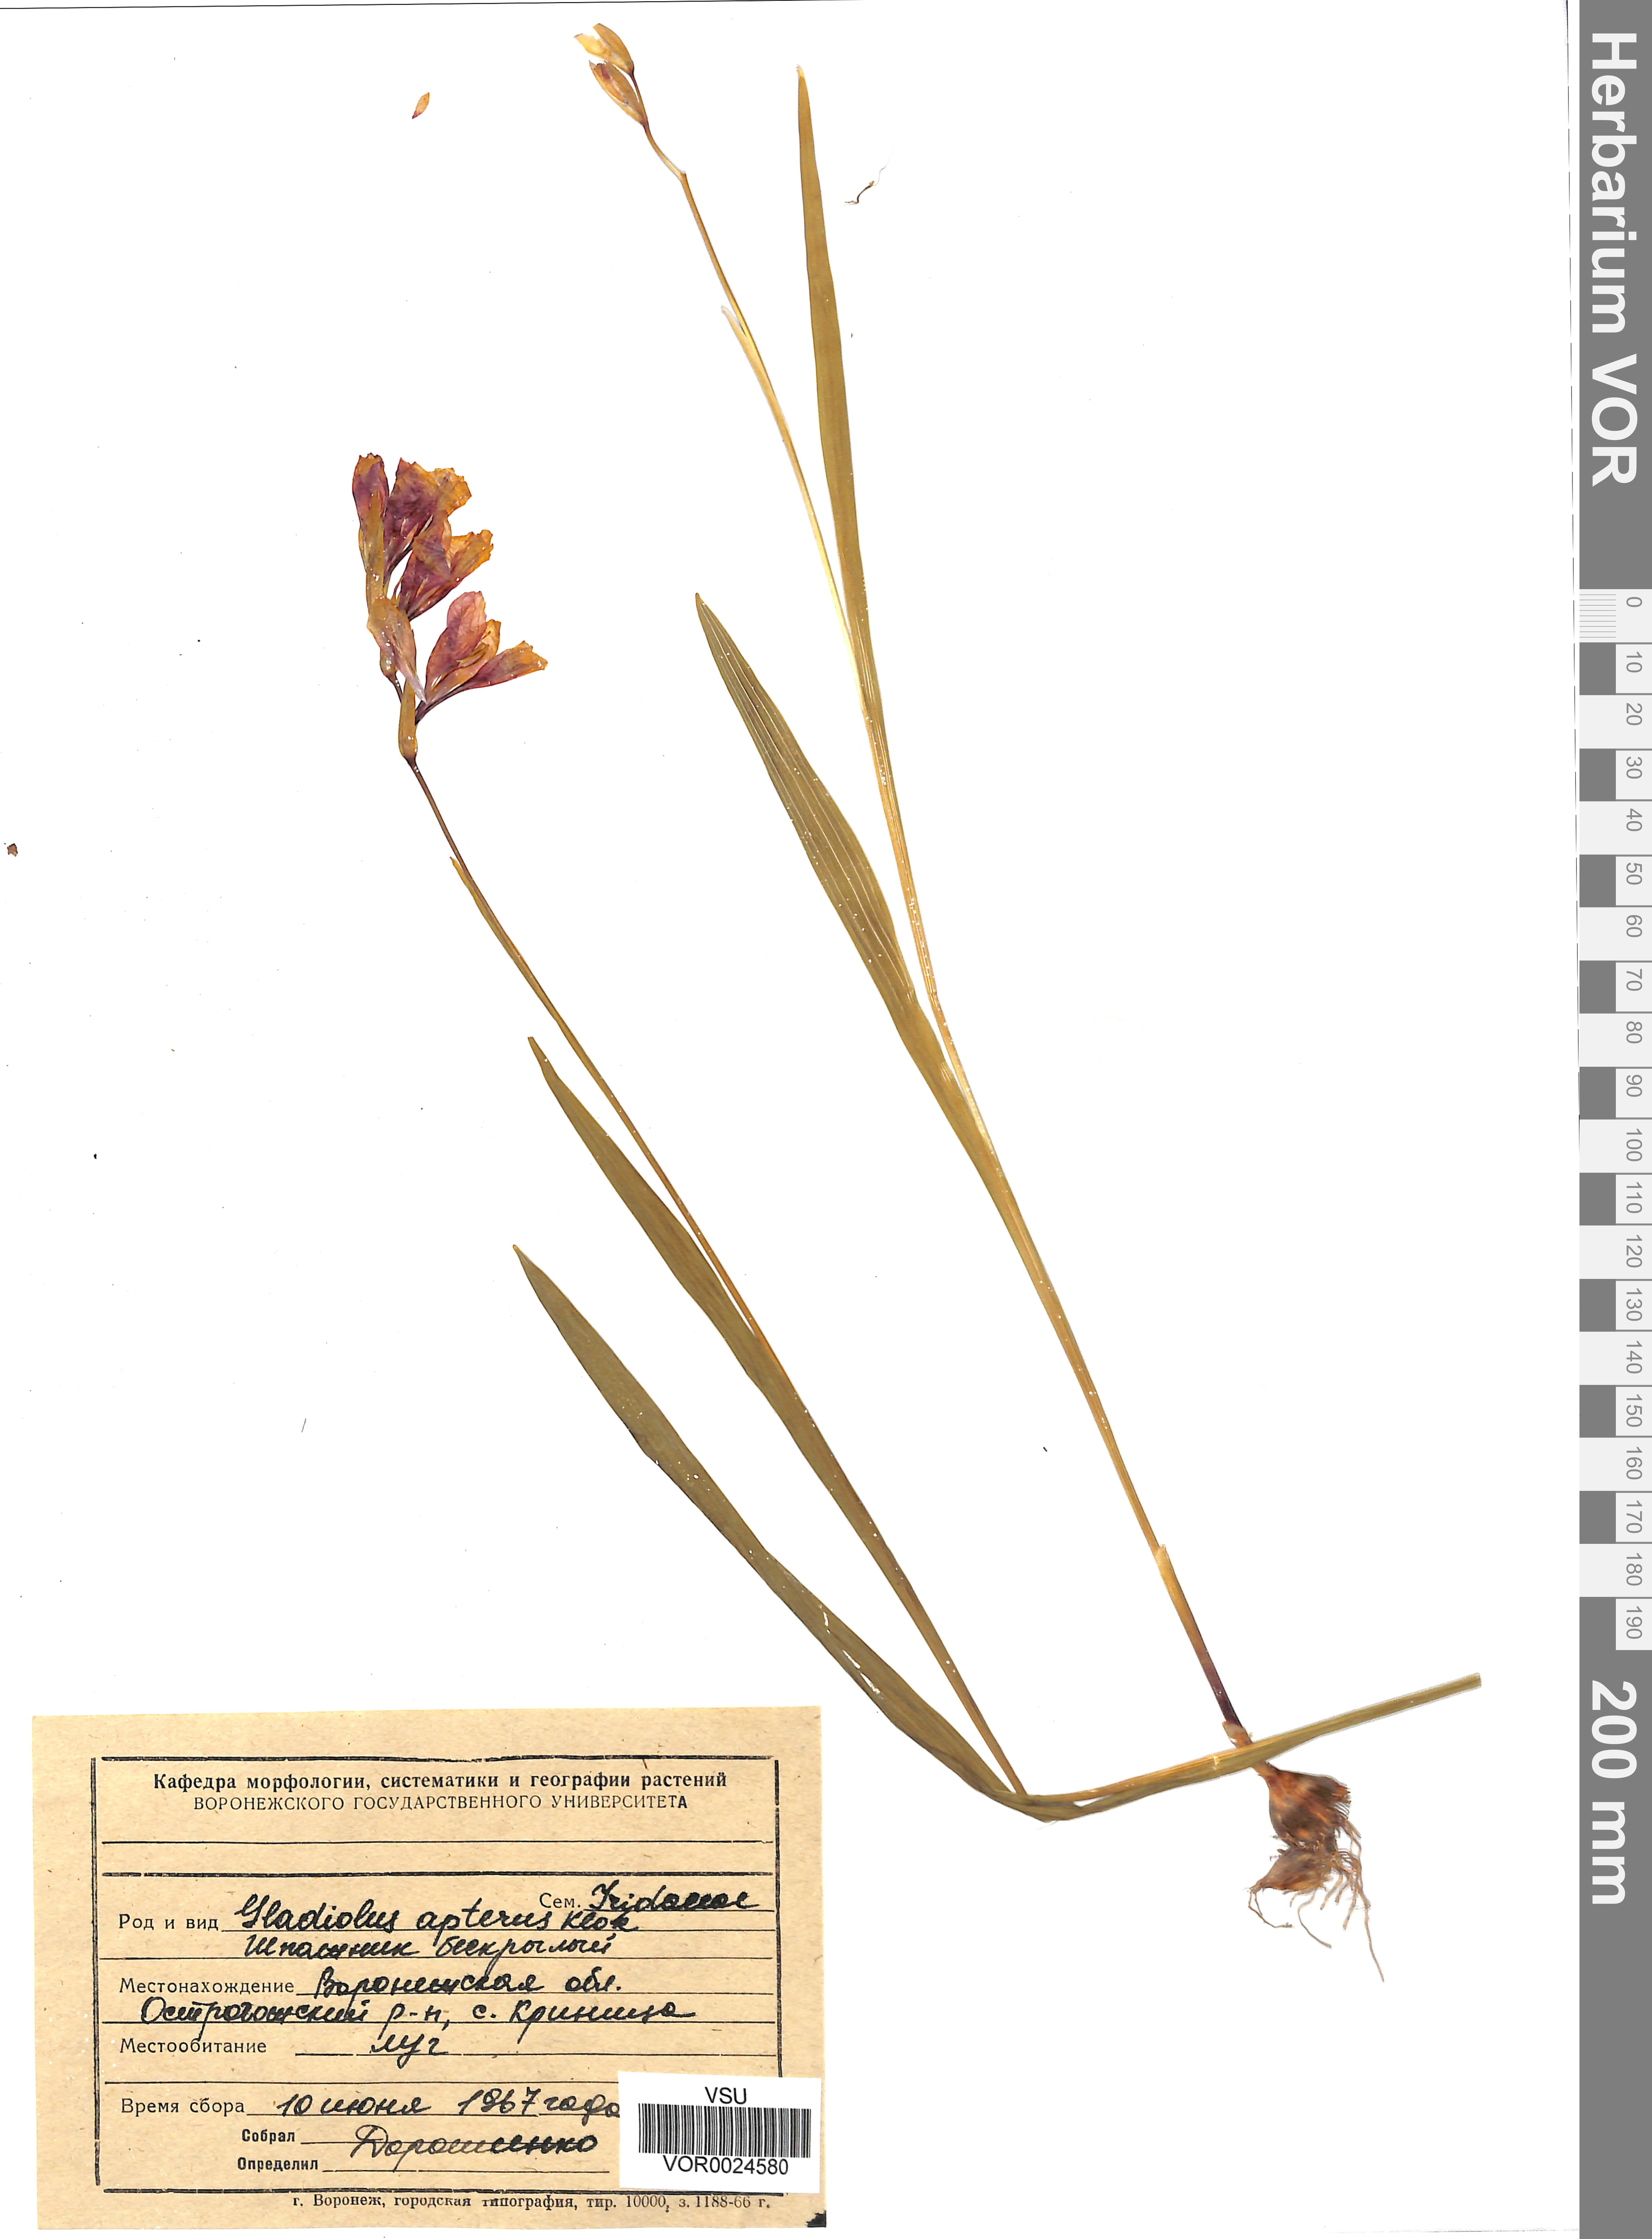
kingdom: Plantae
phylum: Tracheophyta
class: Liliopsida
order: Asparagales
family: Iridaceae
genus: Gladiolus
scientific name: Gladiolus tenuis
